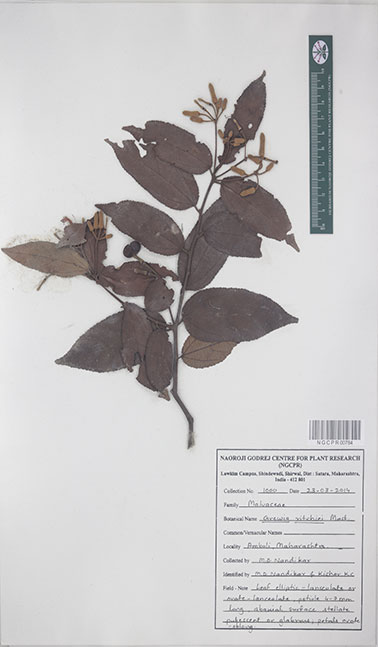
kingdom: Plantae
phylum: Tracheophyta
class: Magnoliopsida
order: Malvales
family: Malvaceae
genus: Grewia
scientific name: Grewia ritchiei
